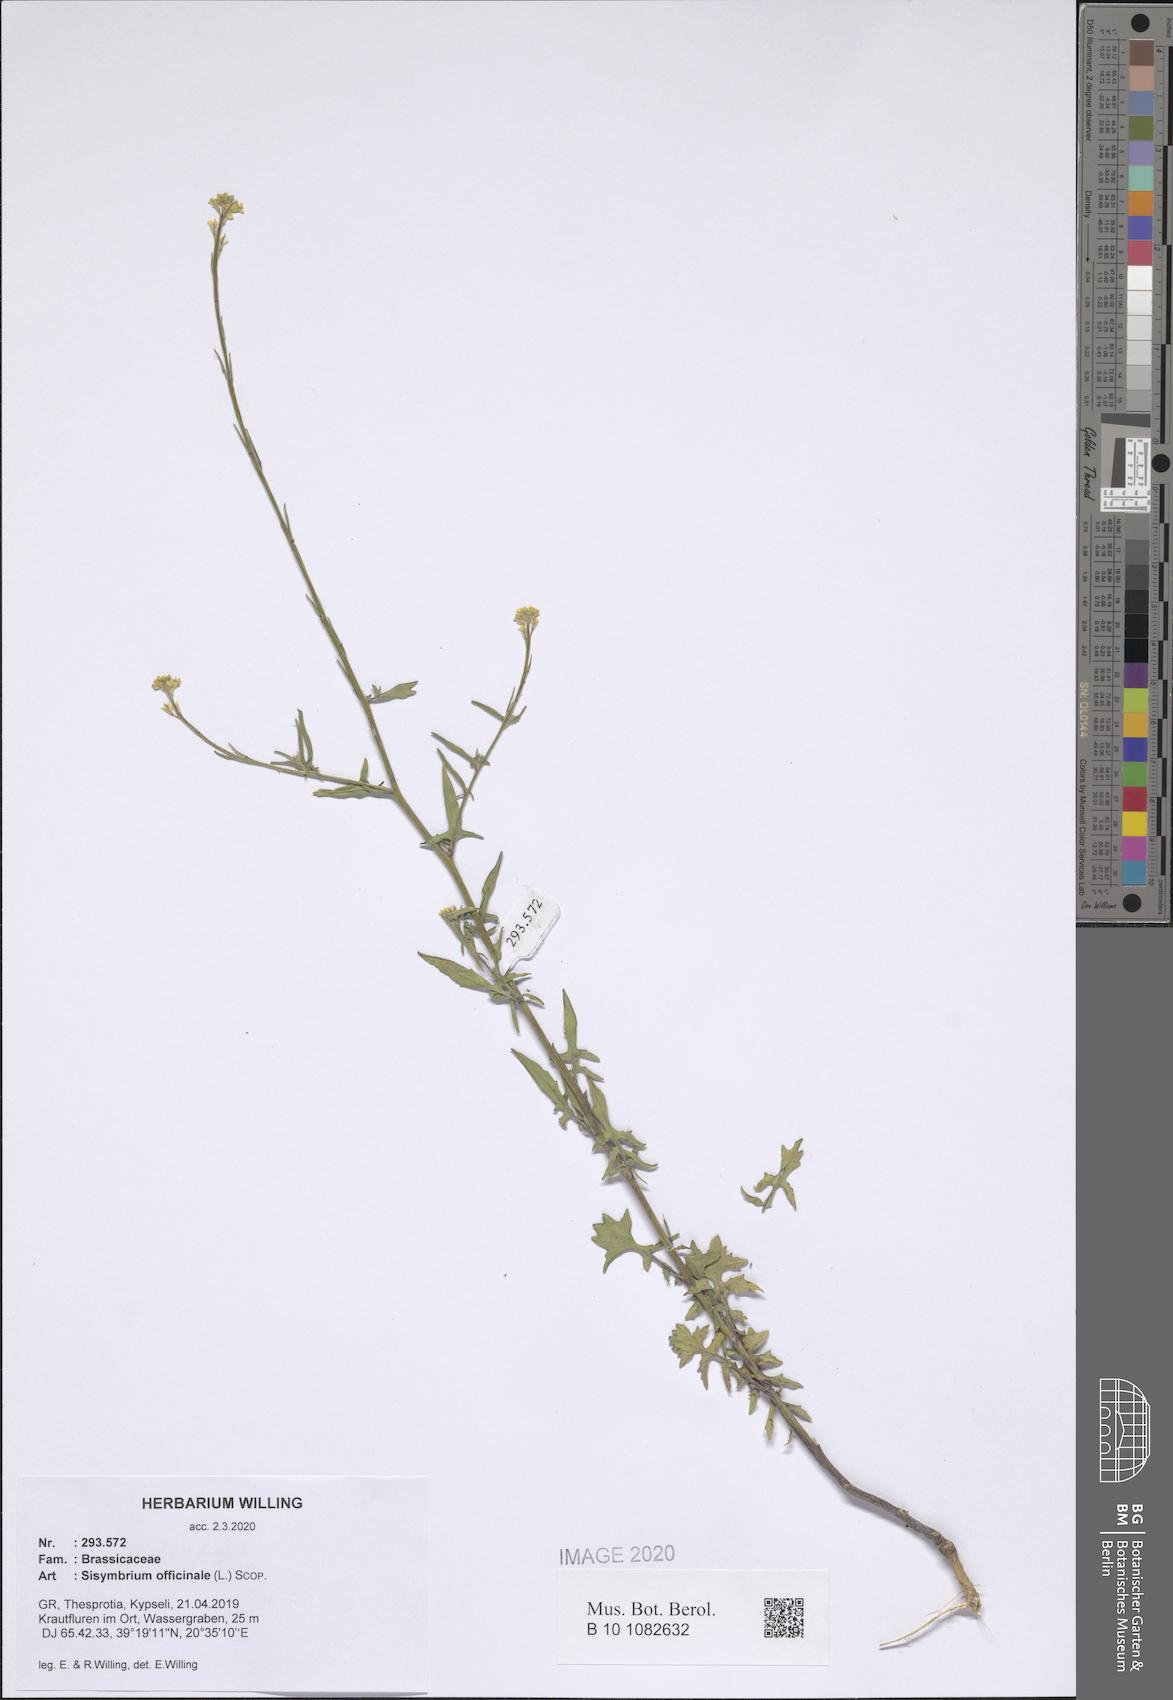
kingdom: Plantae
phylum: Tracheophyta
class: Magnoliopsida
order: Brassicales
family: Brassicaceae
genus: Sisymbrium
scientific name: Sisymbrium officinale
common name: Hedge mustard
